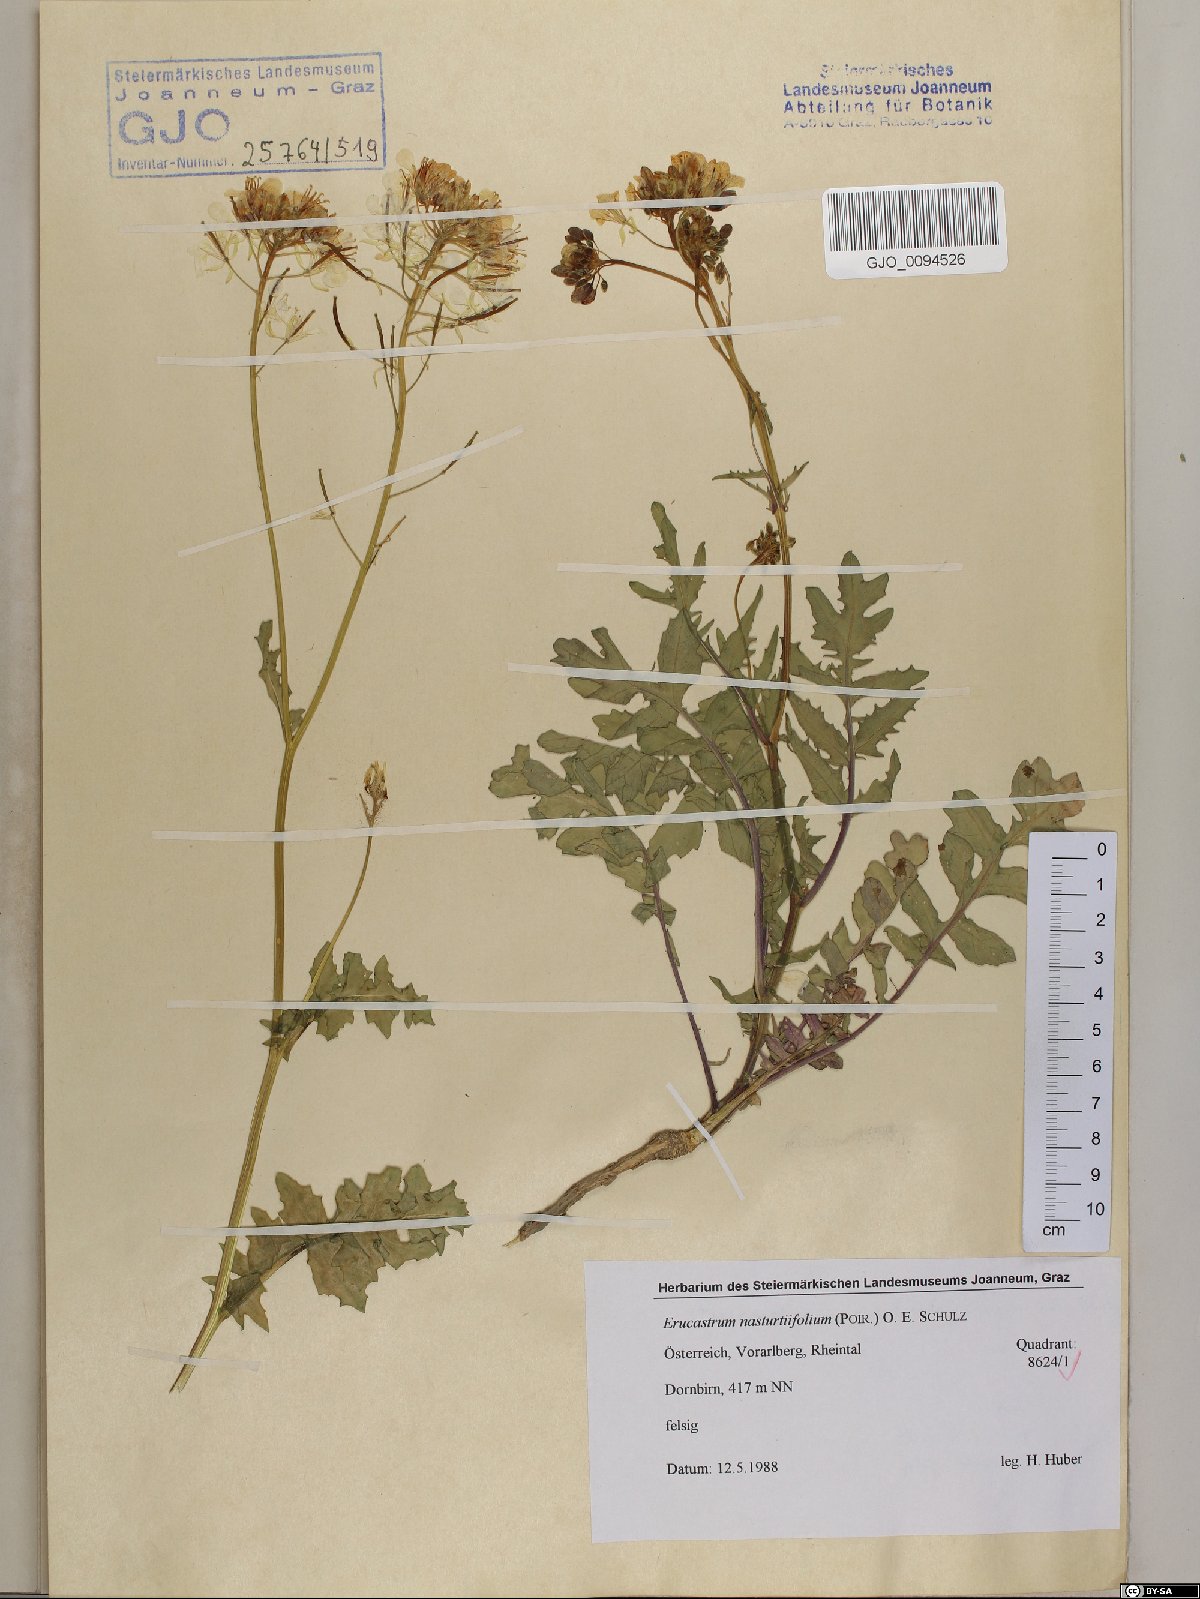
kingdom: Plantae
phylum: Tracheophyta
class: Magnoliopsida
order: Brassicales
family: Brassicaceae
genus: Erucastrum
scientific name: Erucastrum nasturtiifolium
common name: Watercress-leaf rocket
